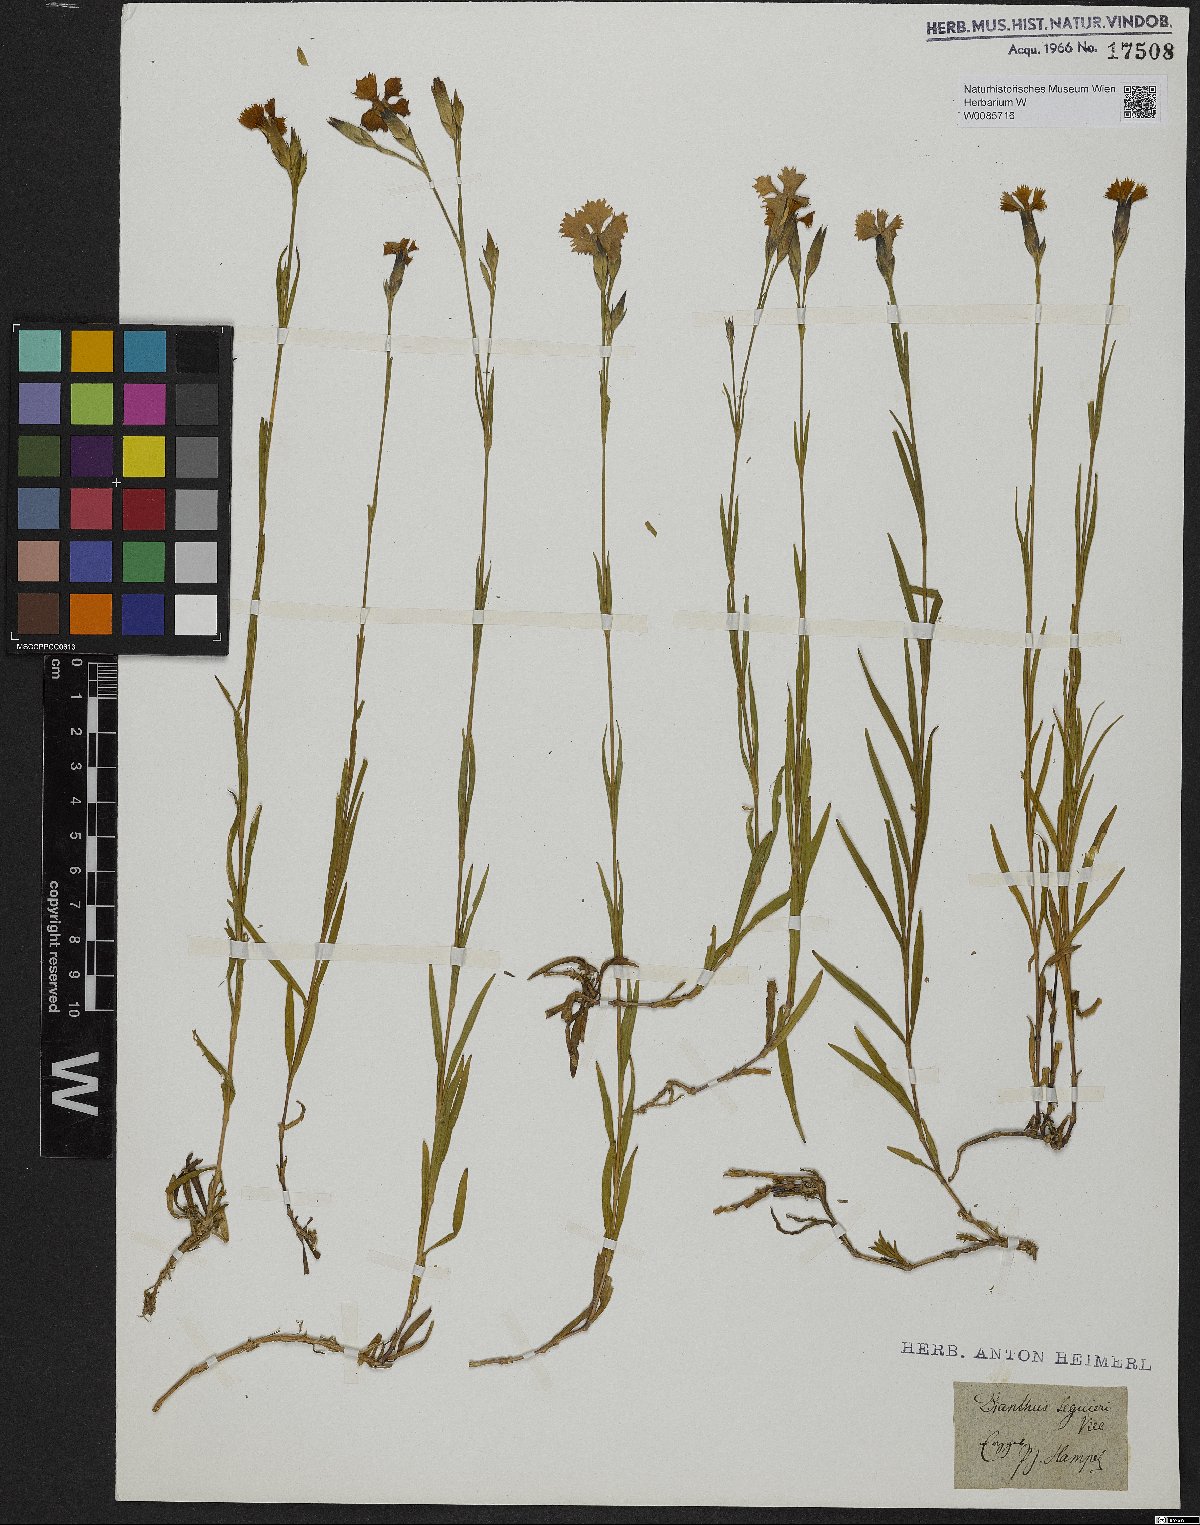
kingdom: Plantae
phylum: Tracheophyta
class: Magnoliopsida
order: Caryophyllales
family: Caryophyllaceae
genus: Dianthus
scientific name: Dianthus seguieri
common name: Ragged pink
